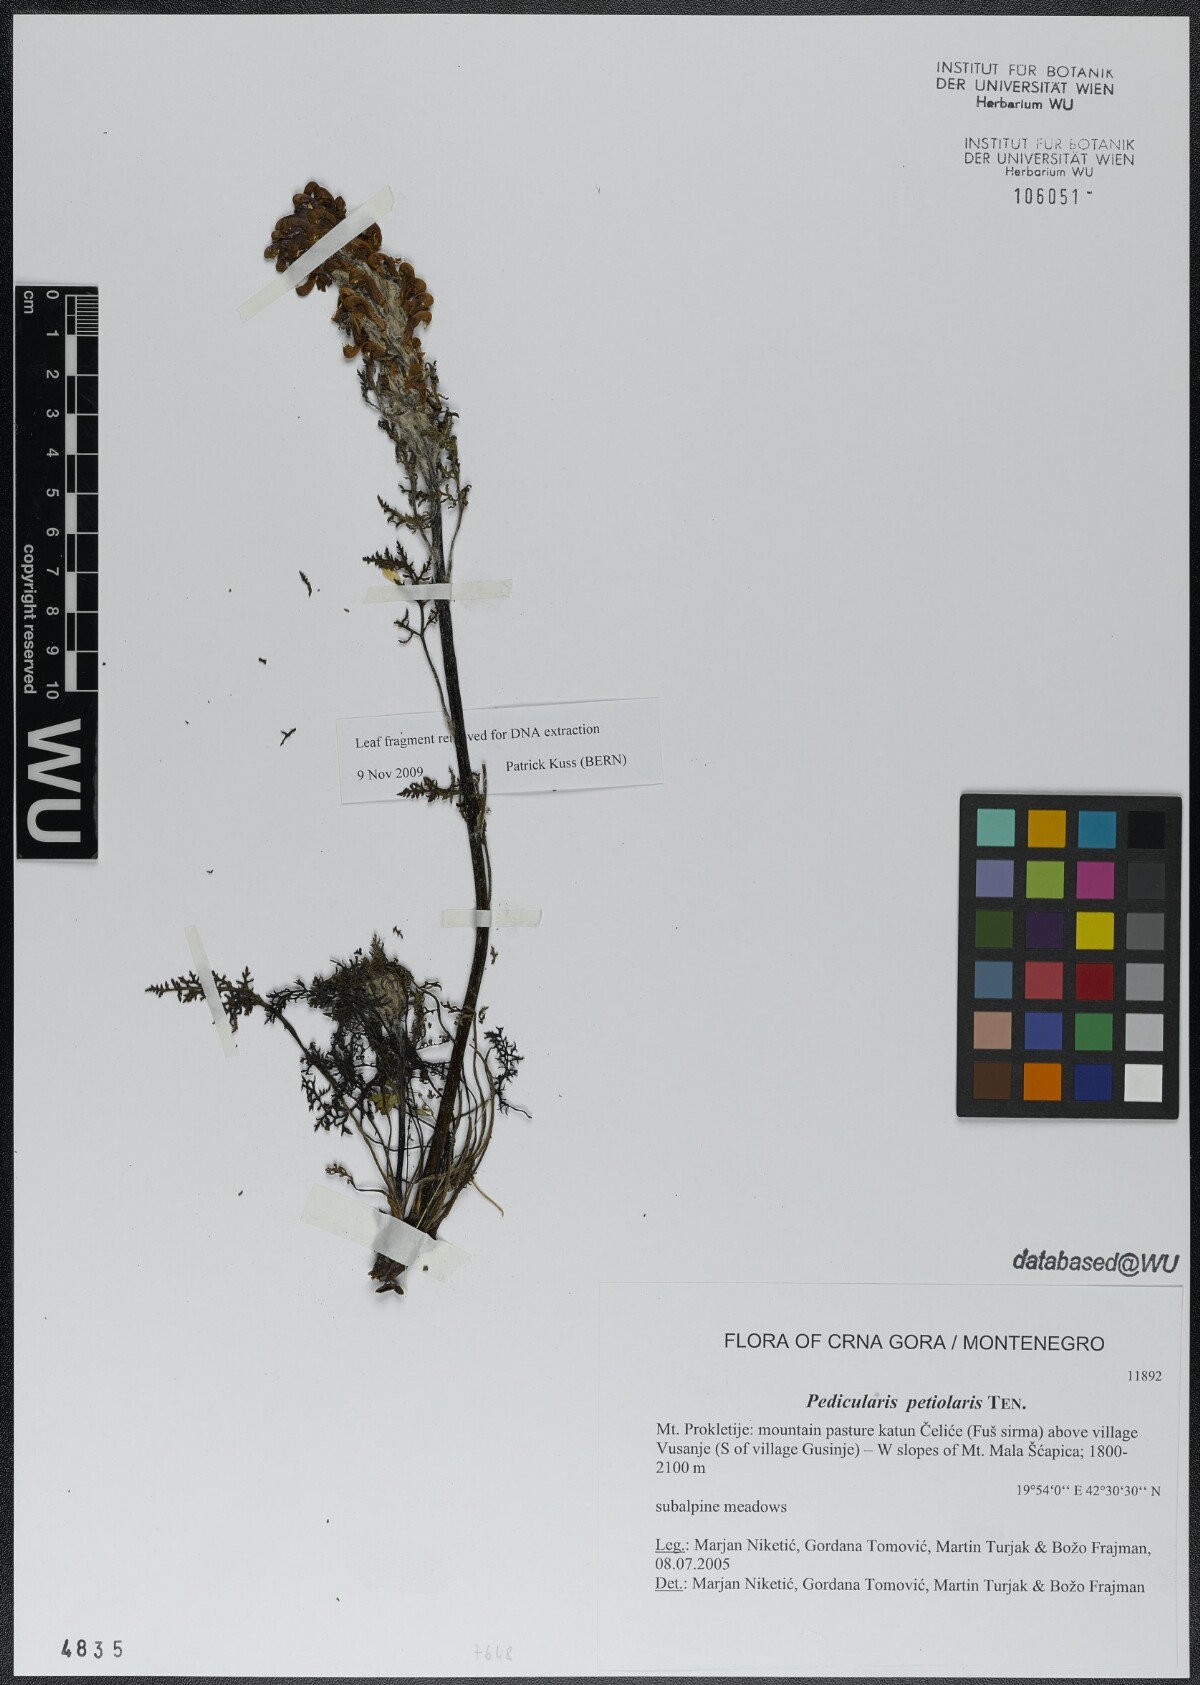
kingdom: Plantae
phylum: Tracheophyta
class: Magnoliopsida
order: Lamiales
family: Orobanchaceae
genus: Pedicularis
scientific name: Pedicularis petiolaris
